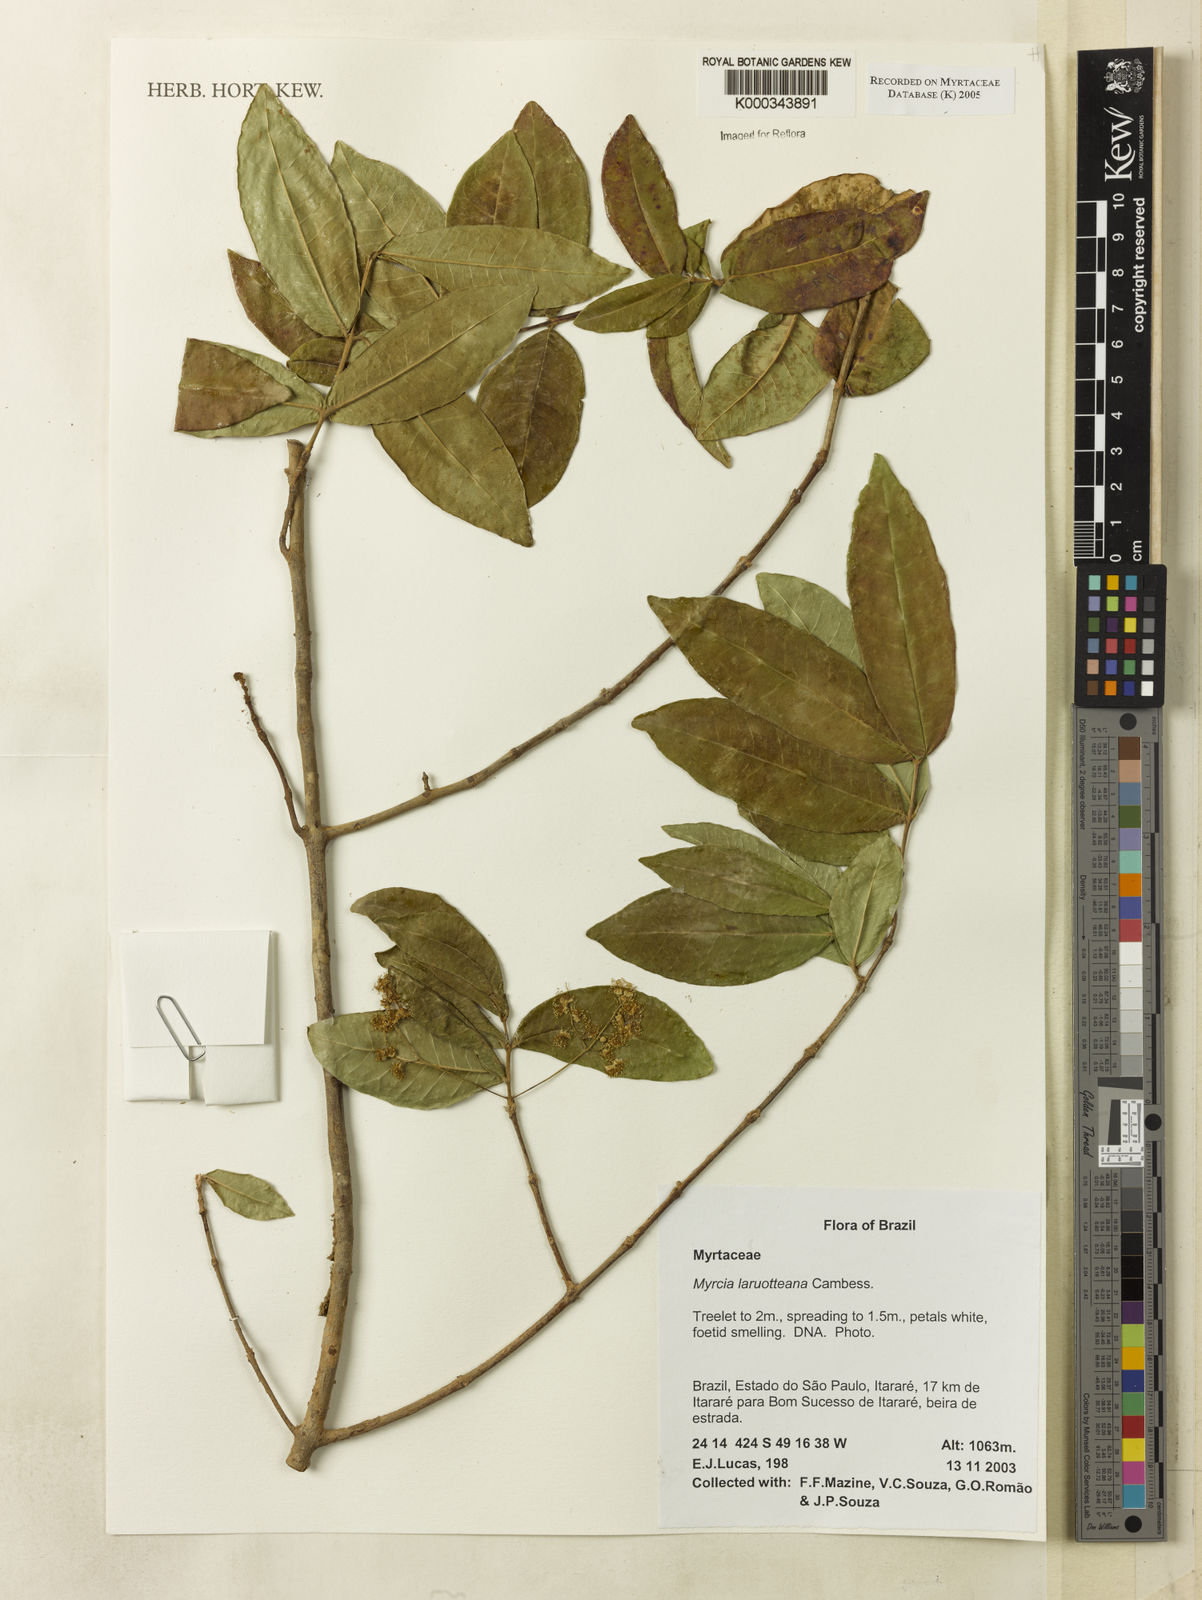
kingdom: Plantae
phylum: Tracheophyta
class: Magnoliopsida
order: Myrtales
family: Myrtaceae
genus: Myrcia
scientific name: Myrcia laruotteana
